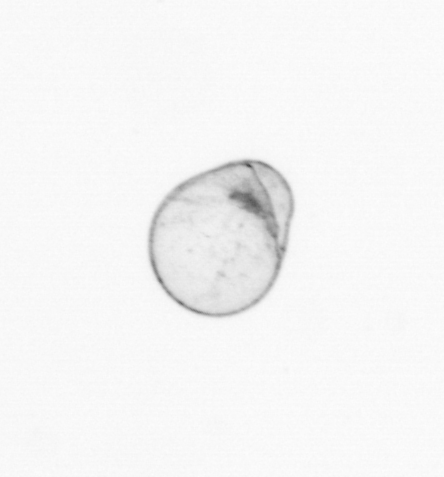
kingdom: Chromista
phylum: Myzozoa
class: Dinophyceae
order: Noctilucales
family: Noctilucaceae
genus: Noctiluca
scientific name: Noctiluca scintillans
